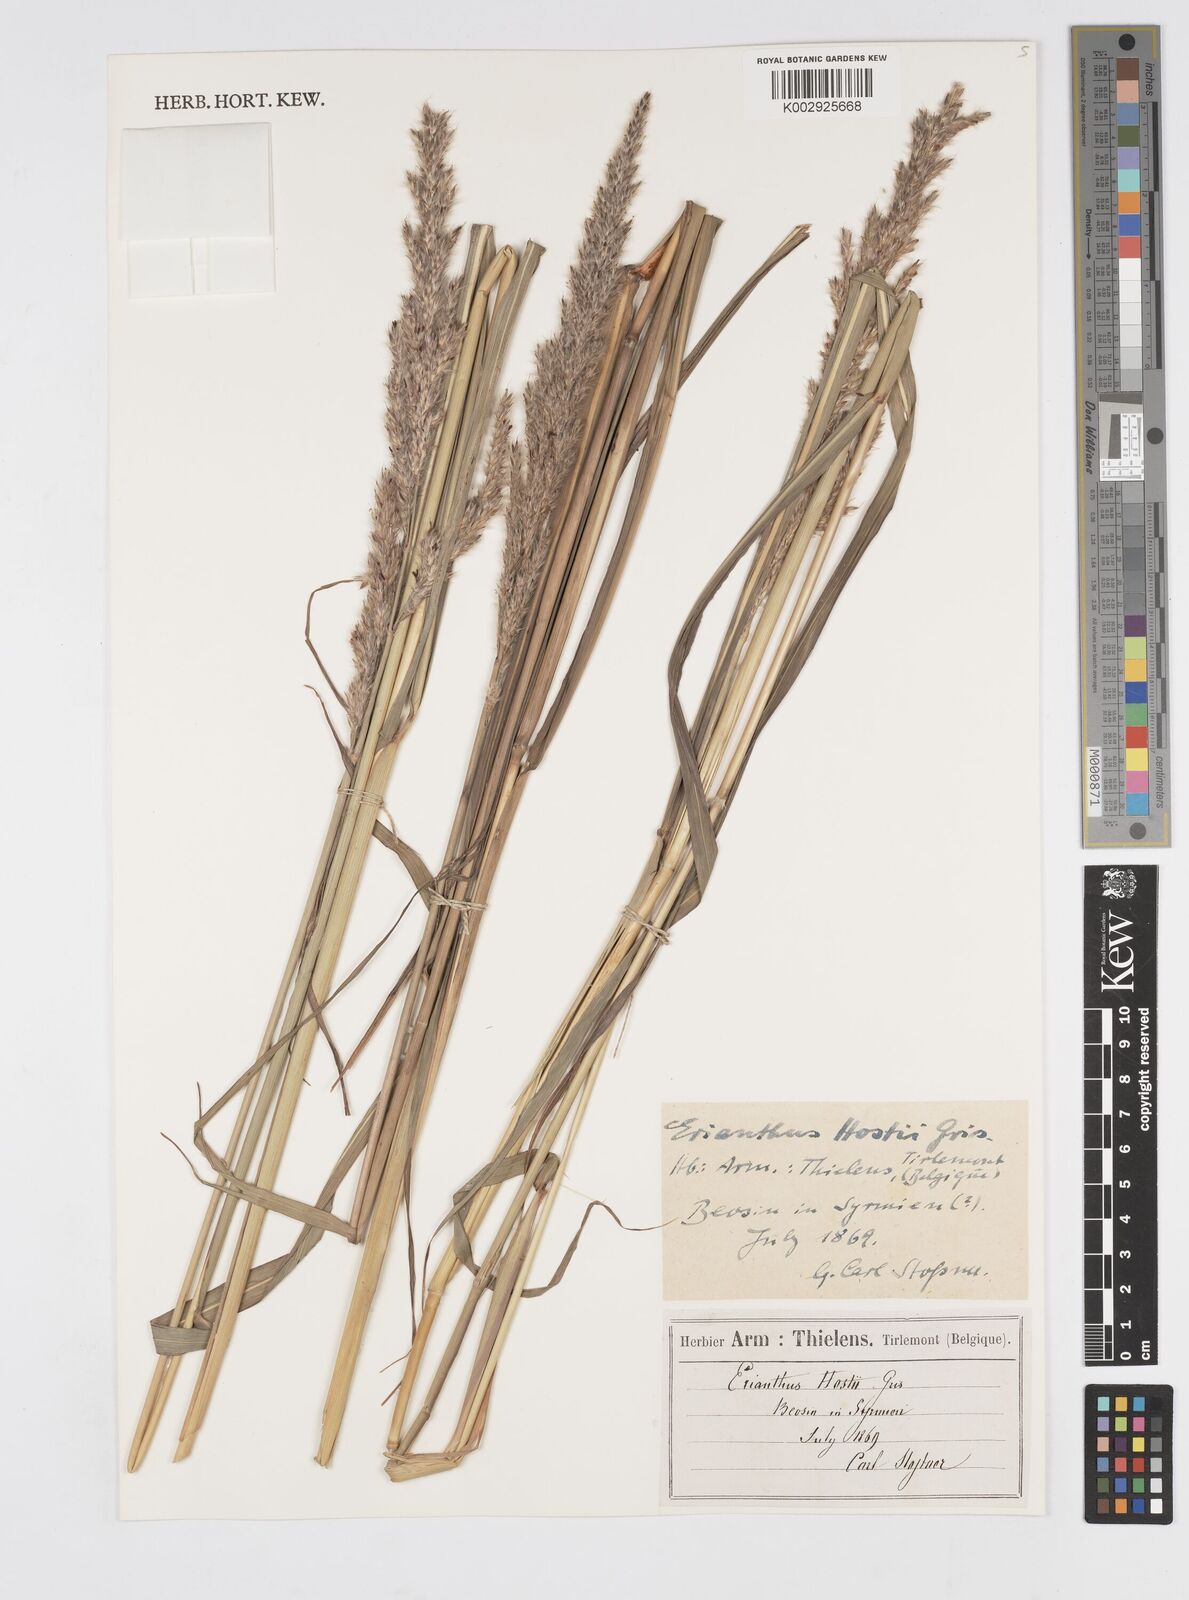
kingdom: Plantae
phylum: Tracheophyta
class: Liliopsida
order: Poales
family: Poaceae
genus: Tripidium
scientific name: Tripidium strictum
